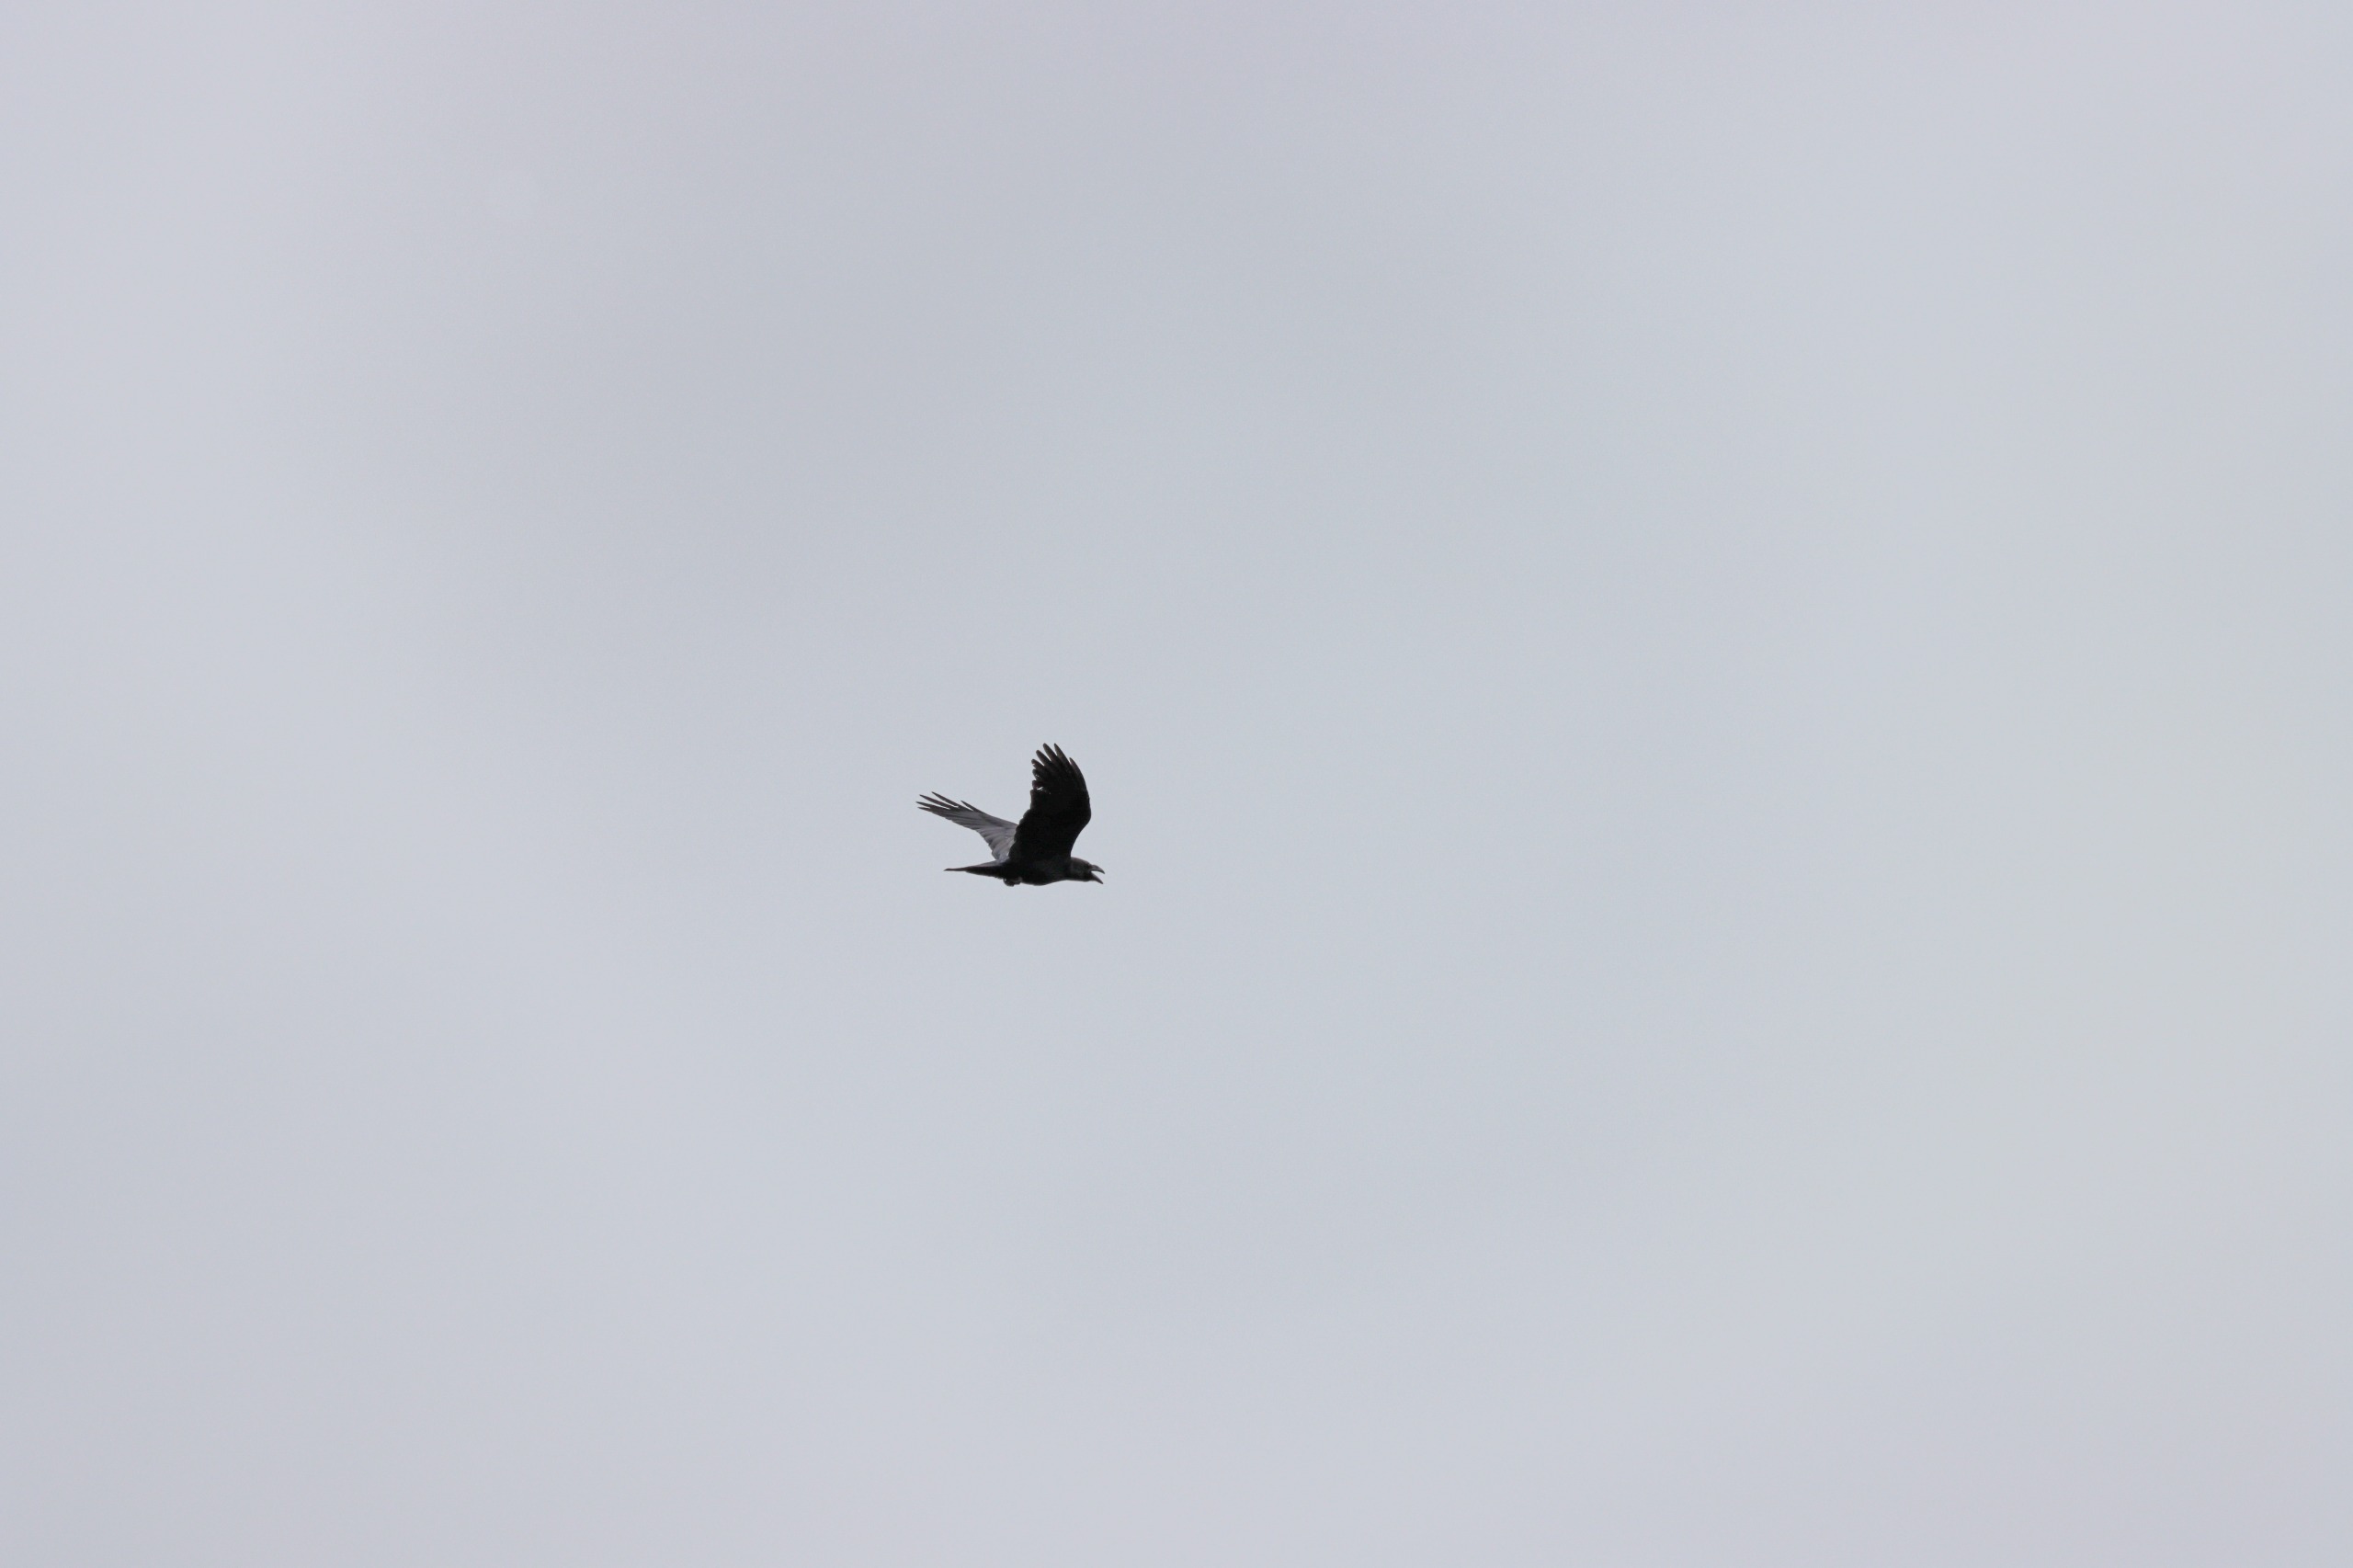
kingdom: Animalia
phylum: Chordata
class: Aves
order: Passeriformes
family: Corvidae
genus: Corvus
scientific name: Corvus corax
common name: Ravn
